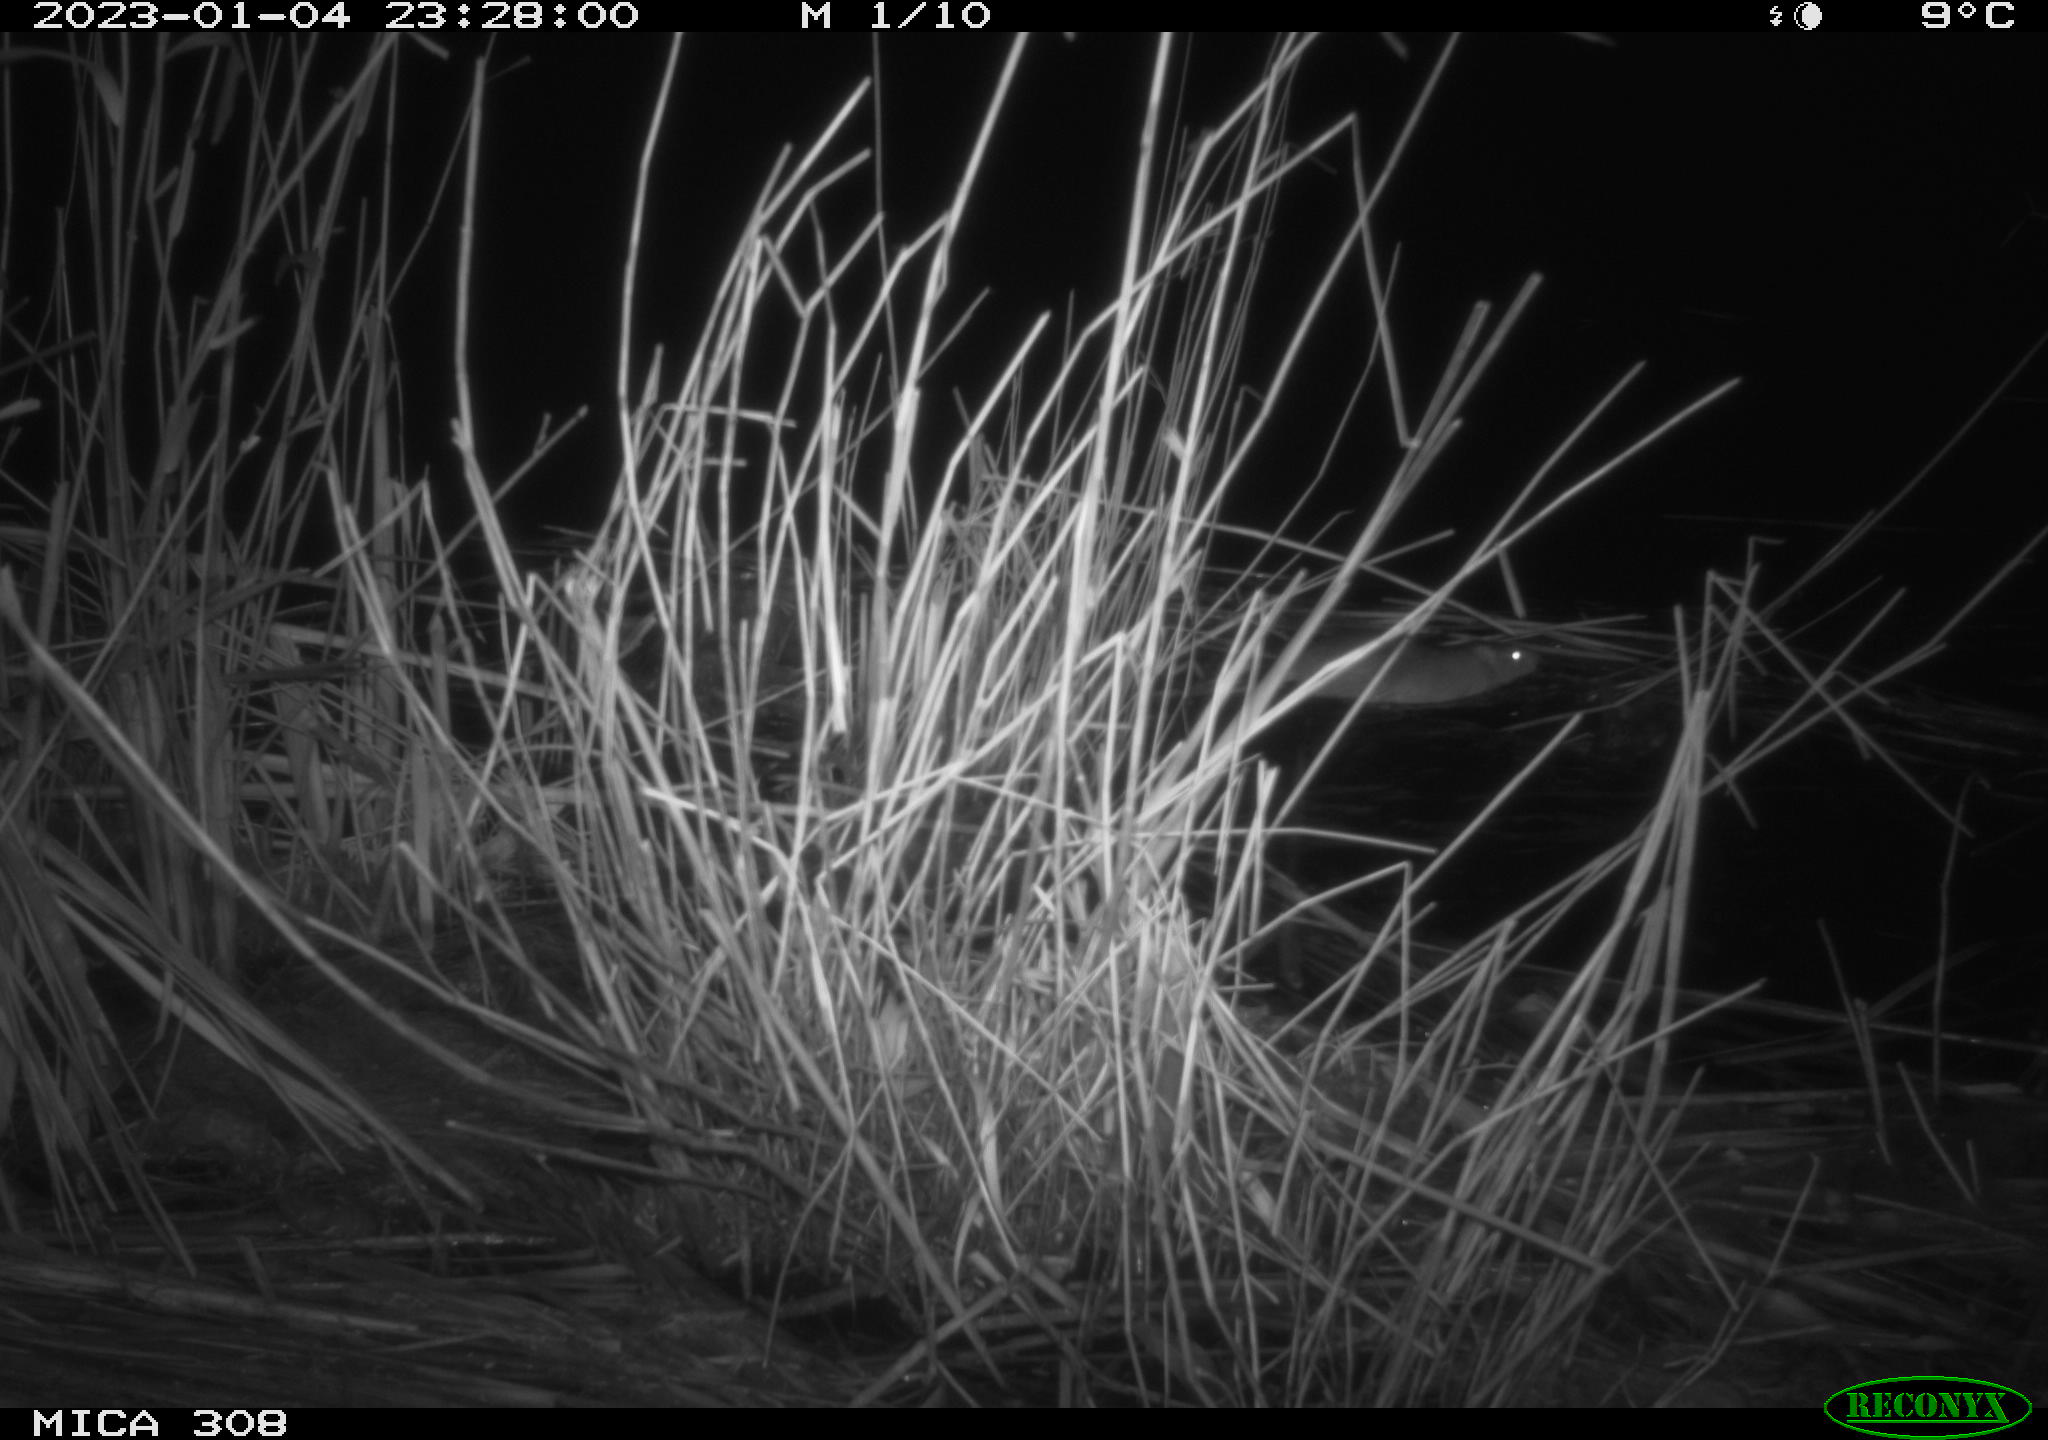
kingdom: Animalia
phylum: Chordata
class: Mammalia
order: Rodentia
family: Muridae
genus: Rattus
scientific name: Rattus norvegicus
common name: Brown rat
